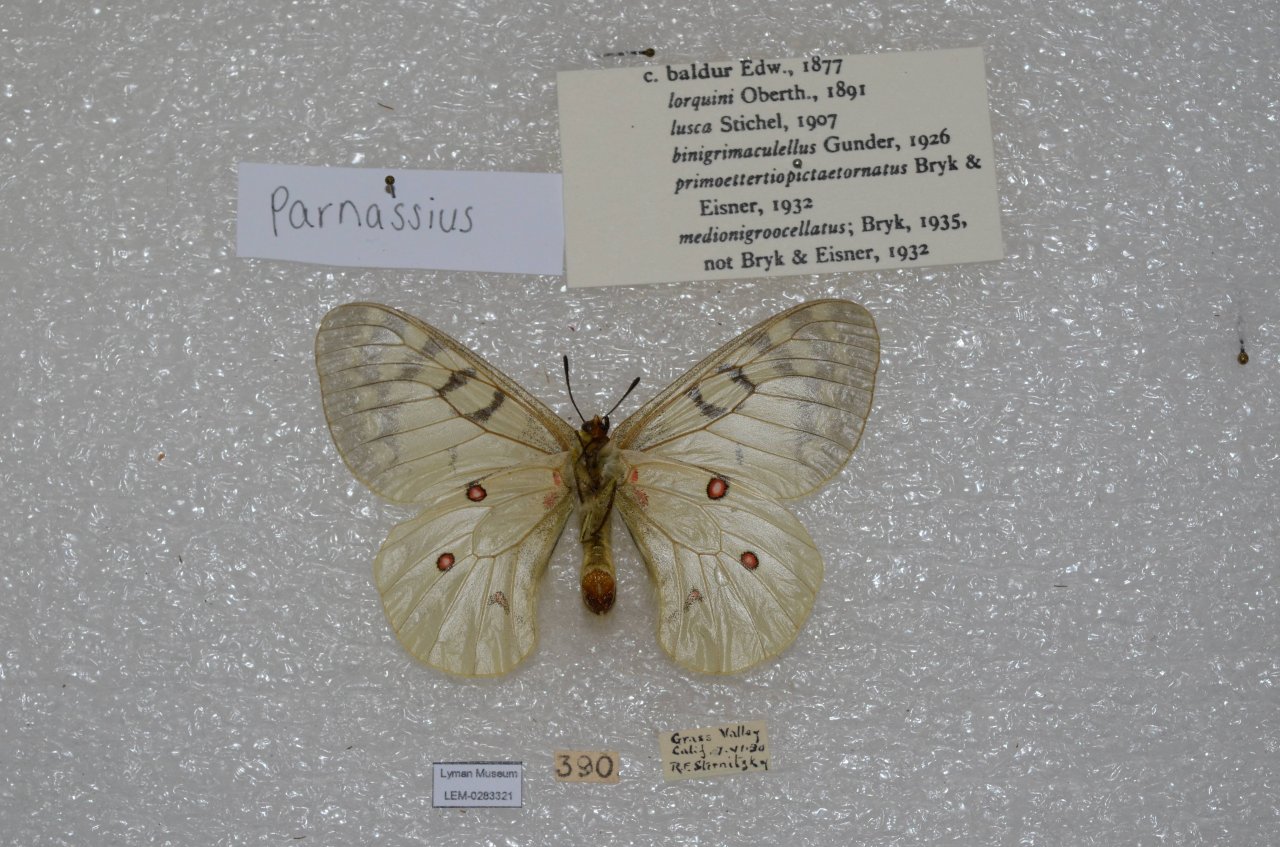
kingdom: Animalia
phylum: Arthropoda
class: Insecta
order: Lepidoptera
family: Papilionidae
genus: Parnassius
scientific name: Parnassius clodius
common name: Clodius Parnassian
